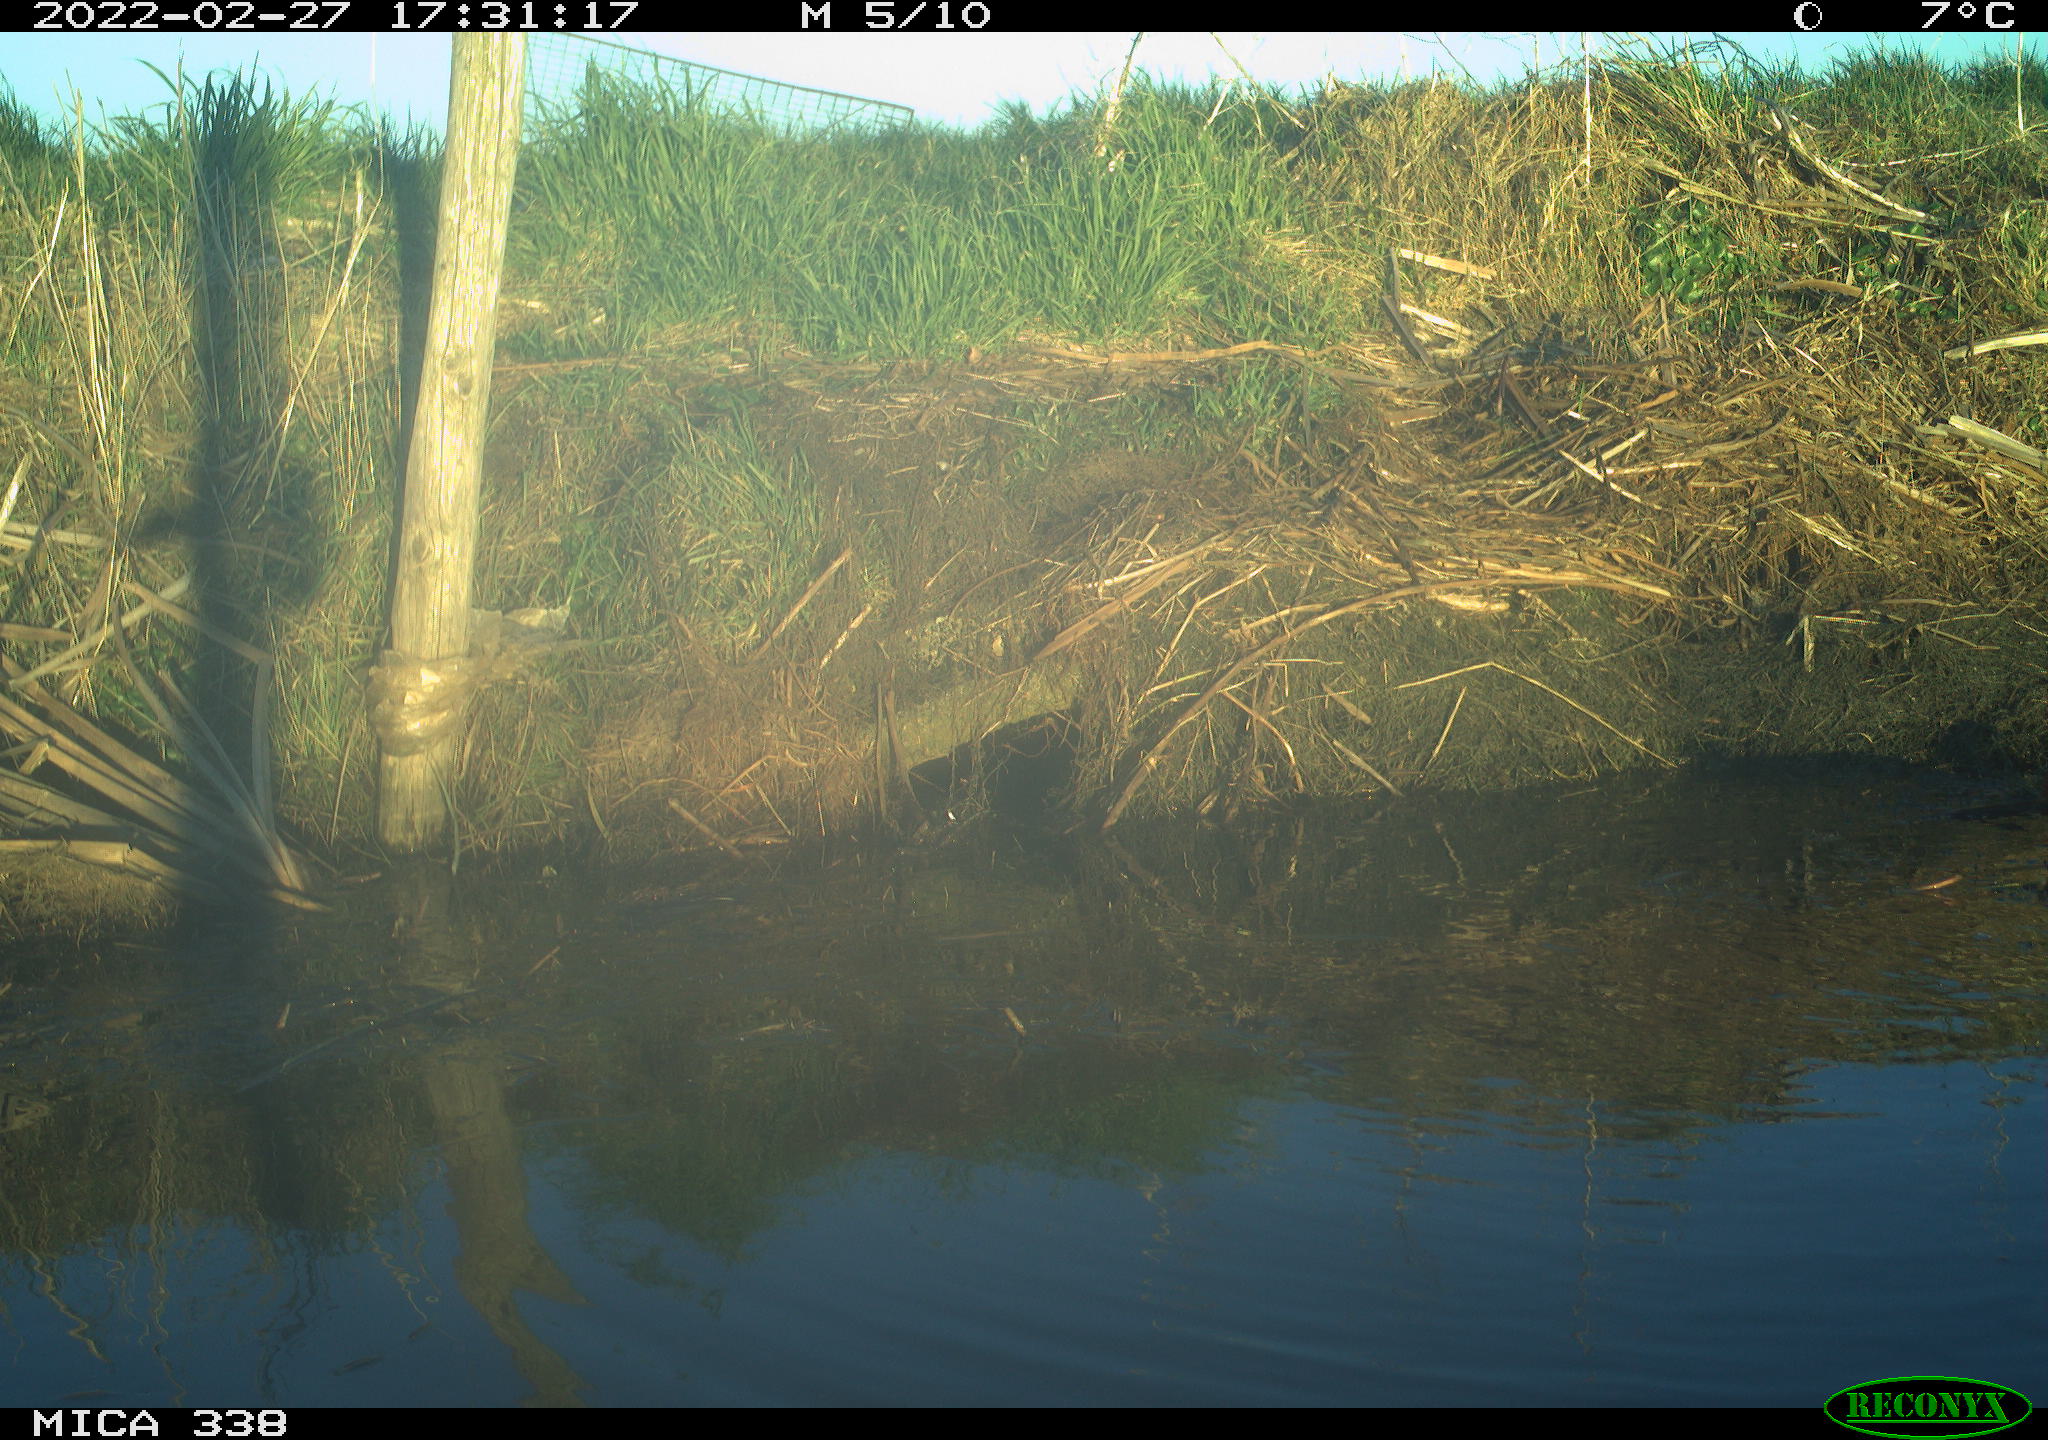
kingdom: Animalia
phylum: Chordata
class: Aves
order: Anseriformes
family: Anatidae
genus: Anas
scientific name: Anas platyrhynchos
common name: Mallard
